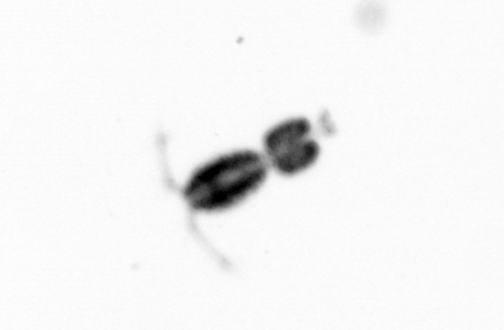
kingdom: Animalia
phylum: Arthropoda
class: Copepoda
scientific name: Copepoda
